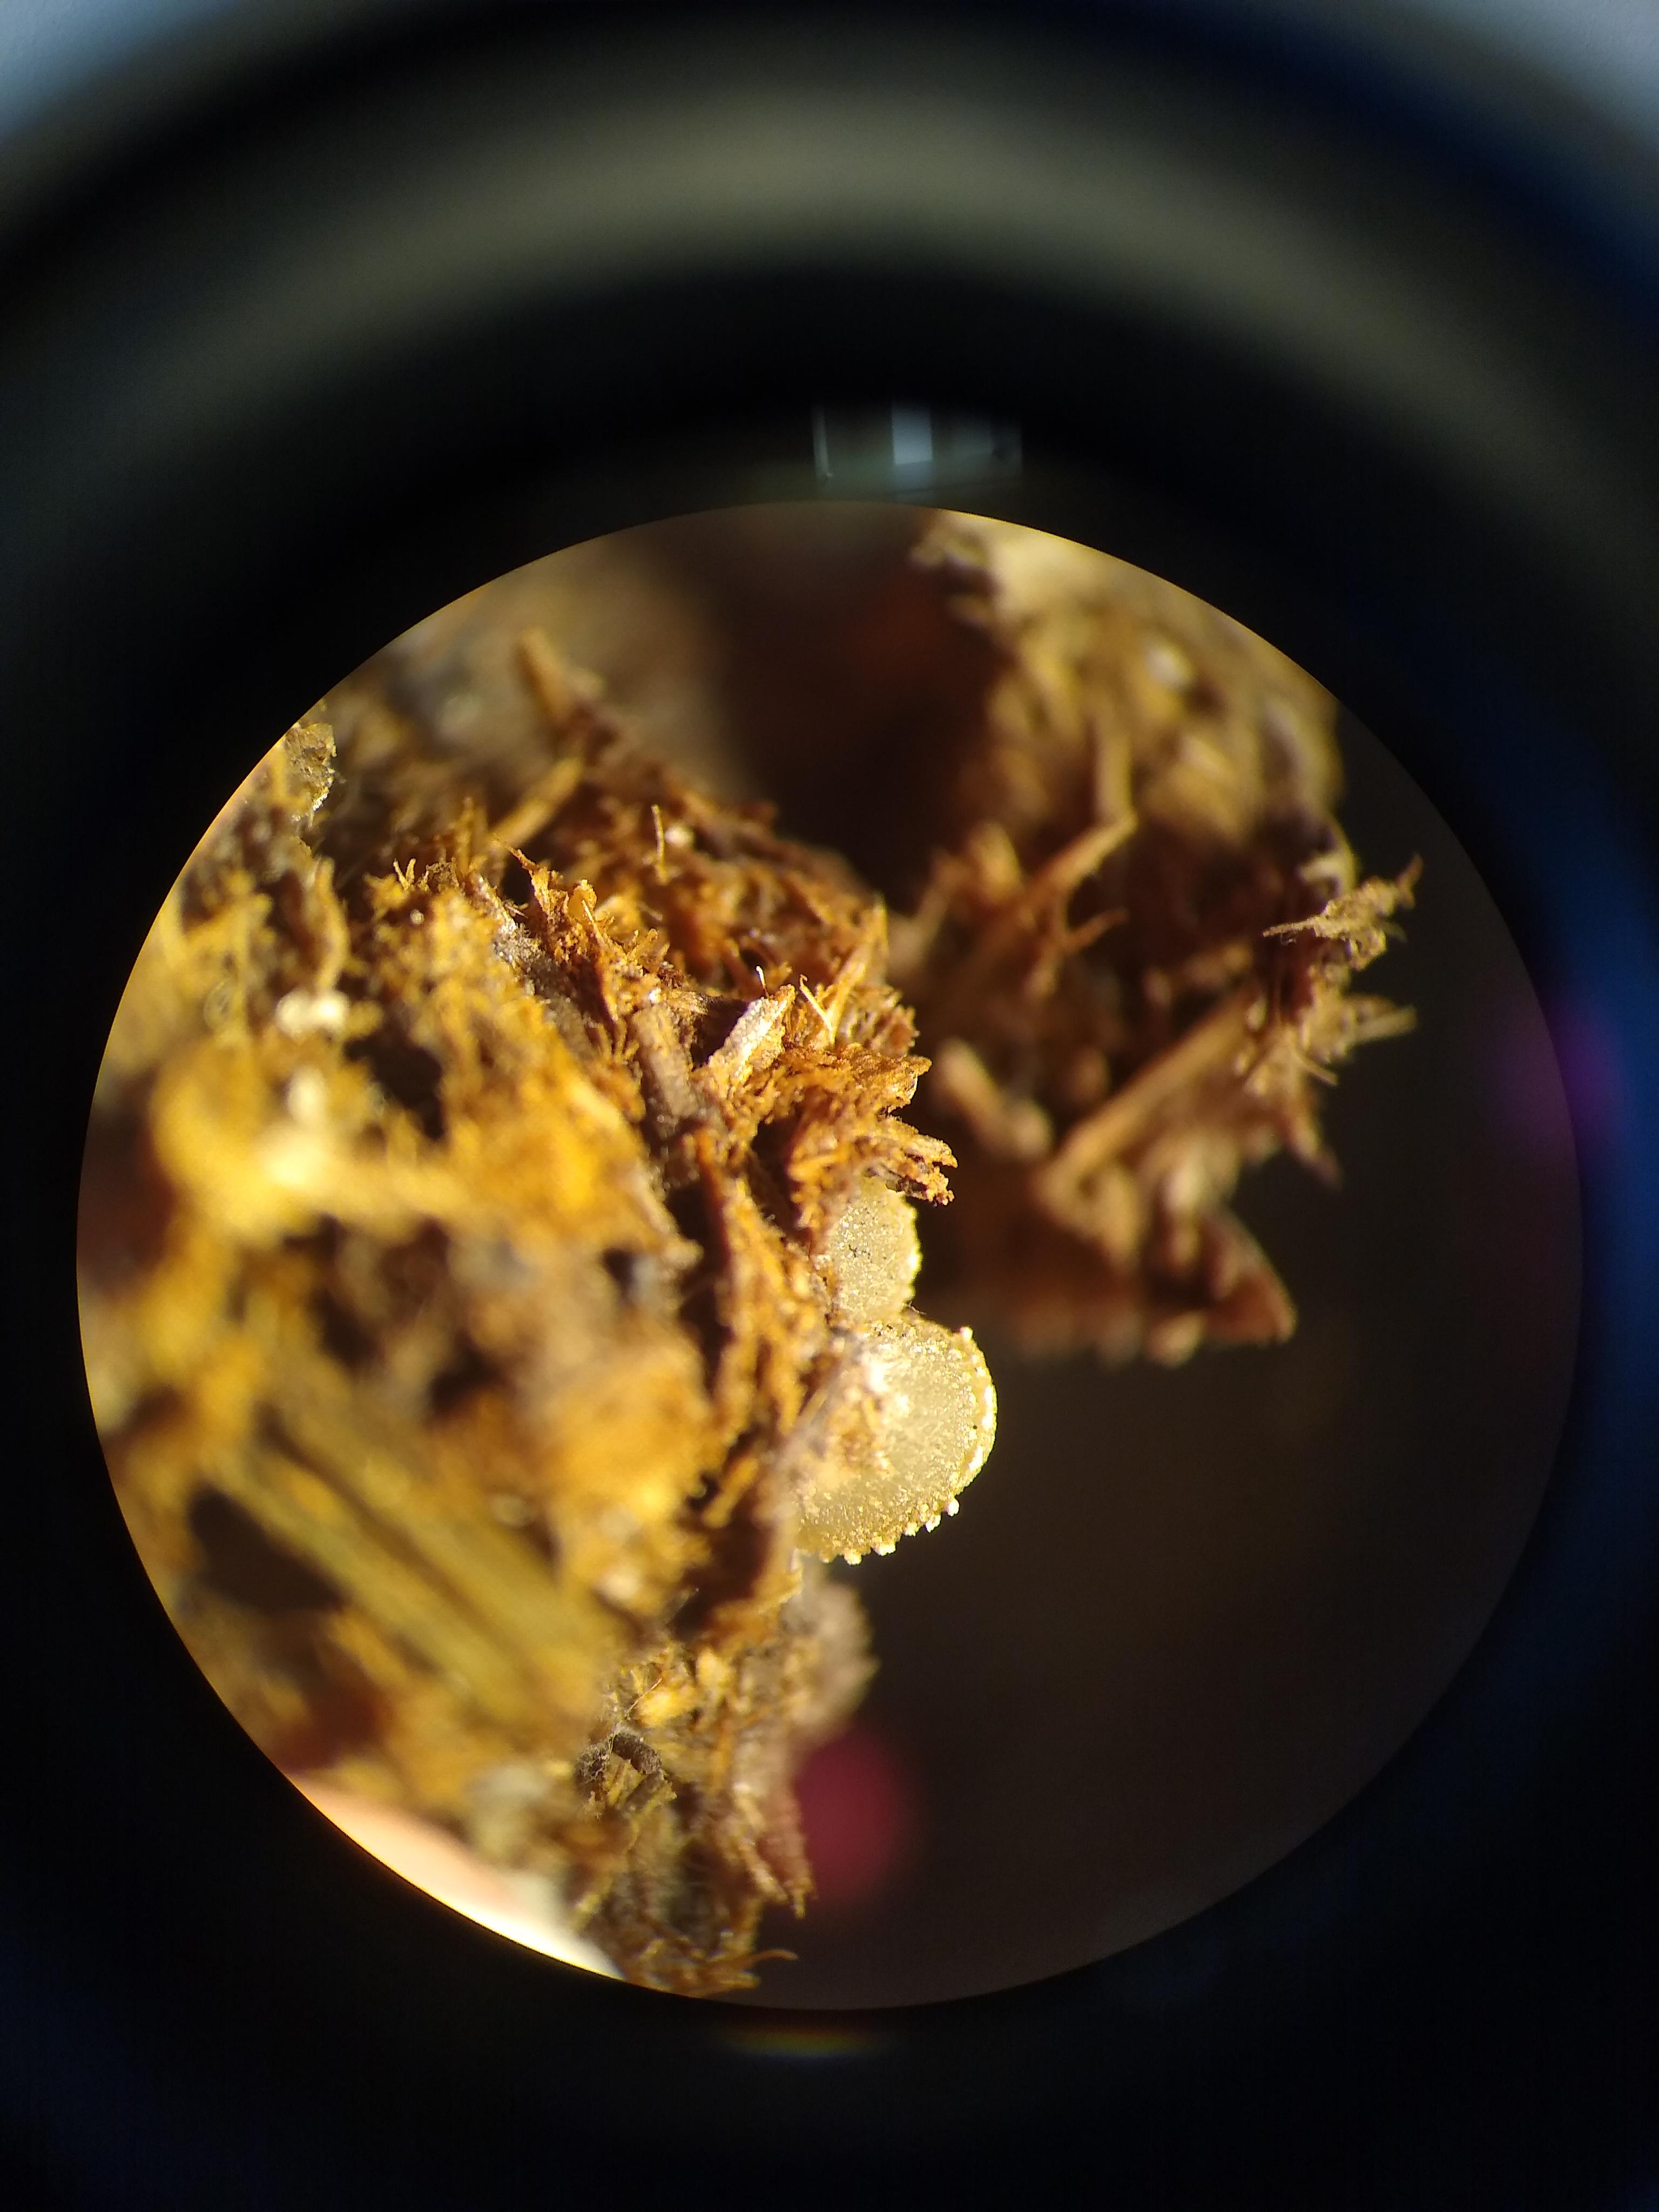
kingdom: Fungi
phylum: Ascomycota
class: Pezizomycetes
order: Pezizales
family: Ascobolaceae
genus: Ascobolus
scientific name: Ascobolus
